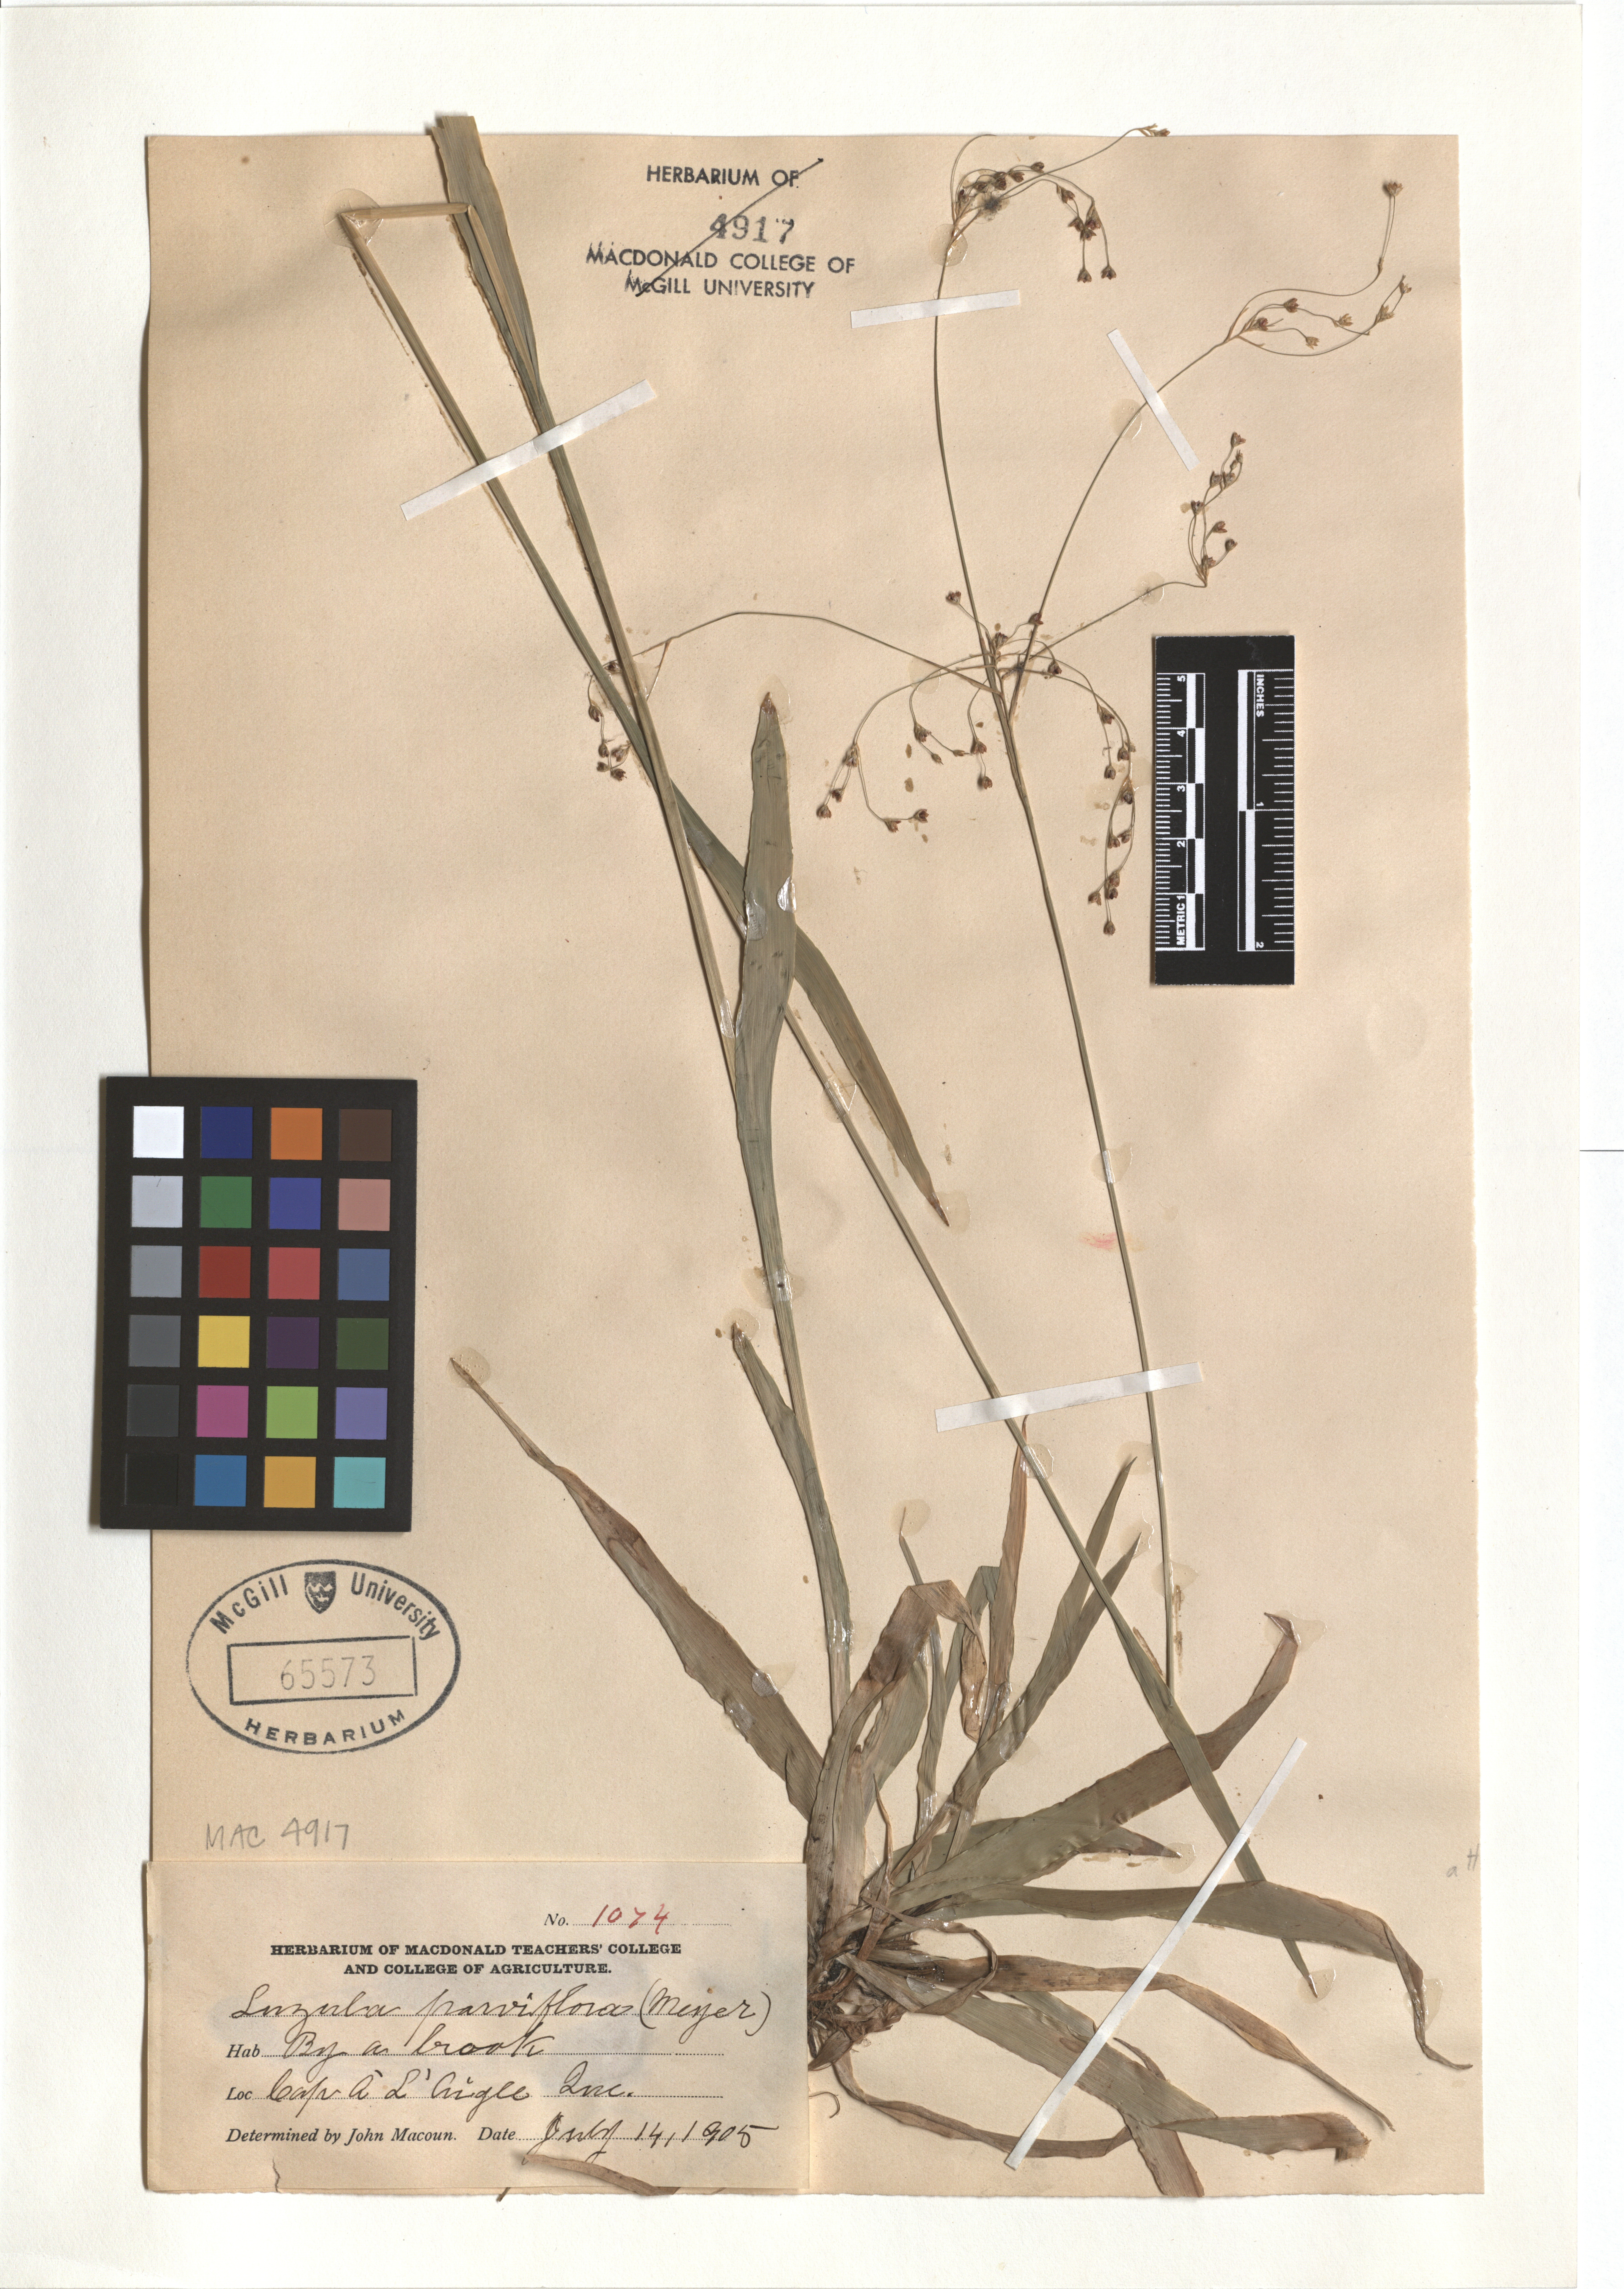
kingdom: Plantae
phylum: Tracheophyta
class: Liliopsida
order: Poales
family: Juncaceae
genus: Luzula
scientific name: Luzula parviflora
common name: Millet woodrush
